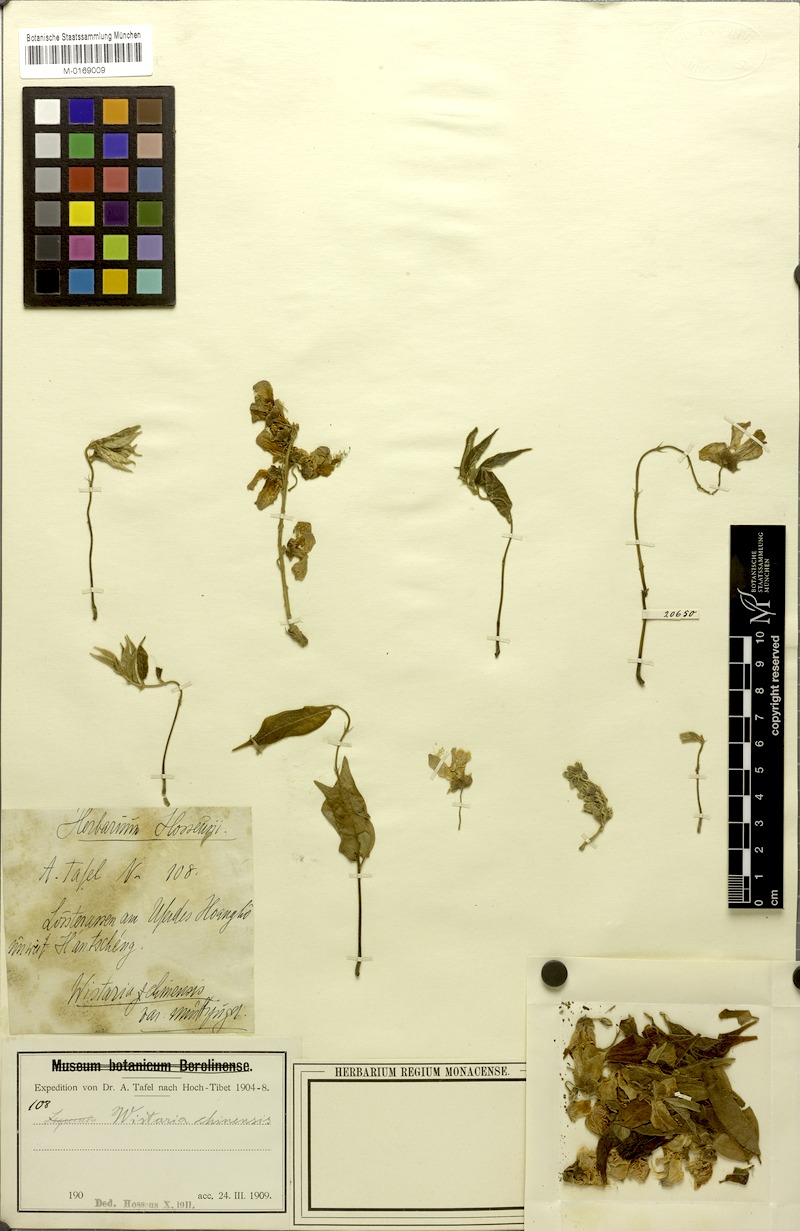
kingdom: Plantae
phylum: Tracheophyta
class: Magnoliopsida
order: Fabales
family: Fabaceae
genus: Wisteria
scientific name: Wisteria floribunda
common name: Japanese wisteria
